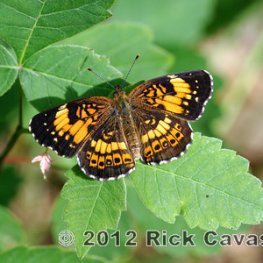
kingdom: Animalia
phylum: Arthropoda
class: Insecta
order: Lepidoptera
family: Nymphalidae
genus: Chlosyne
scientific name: Chlosyne nycteis
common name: Silvery Checkerspot
